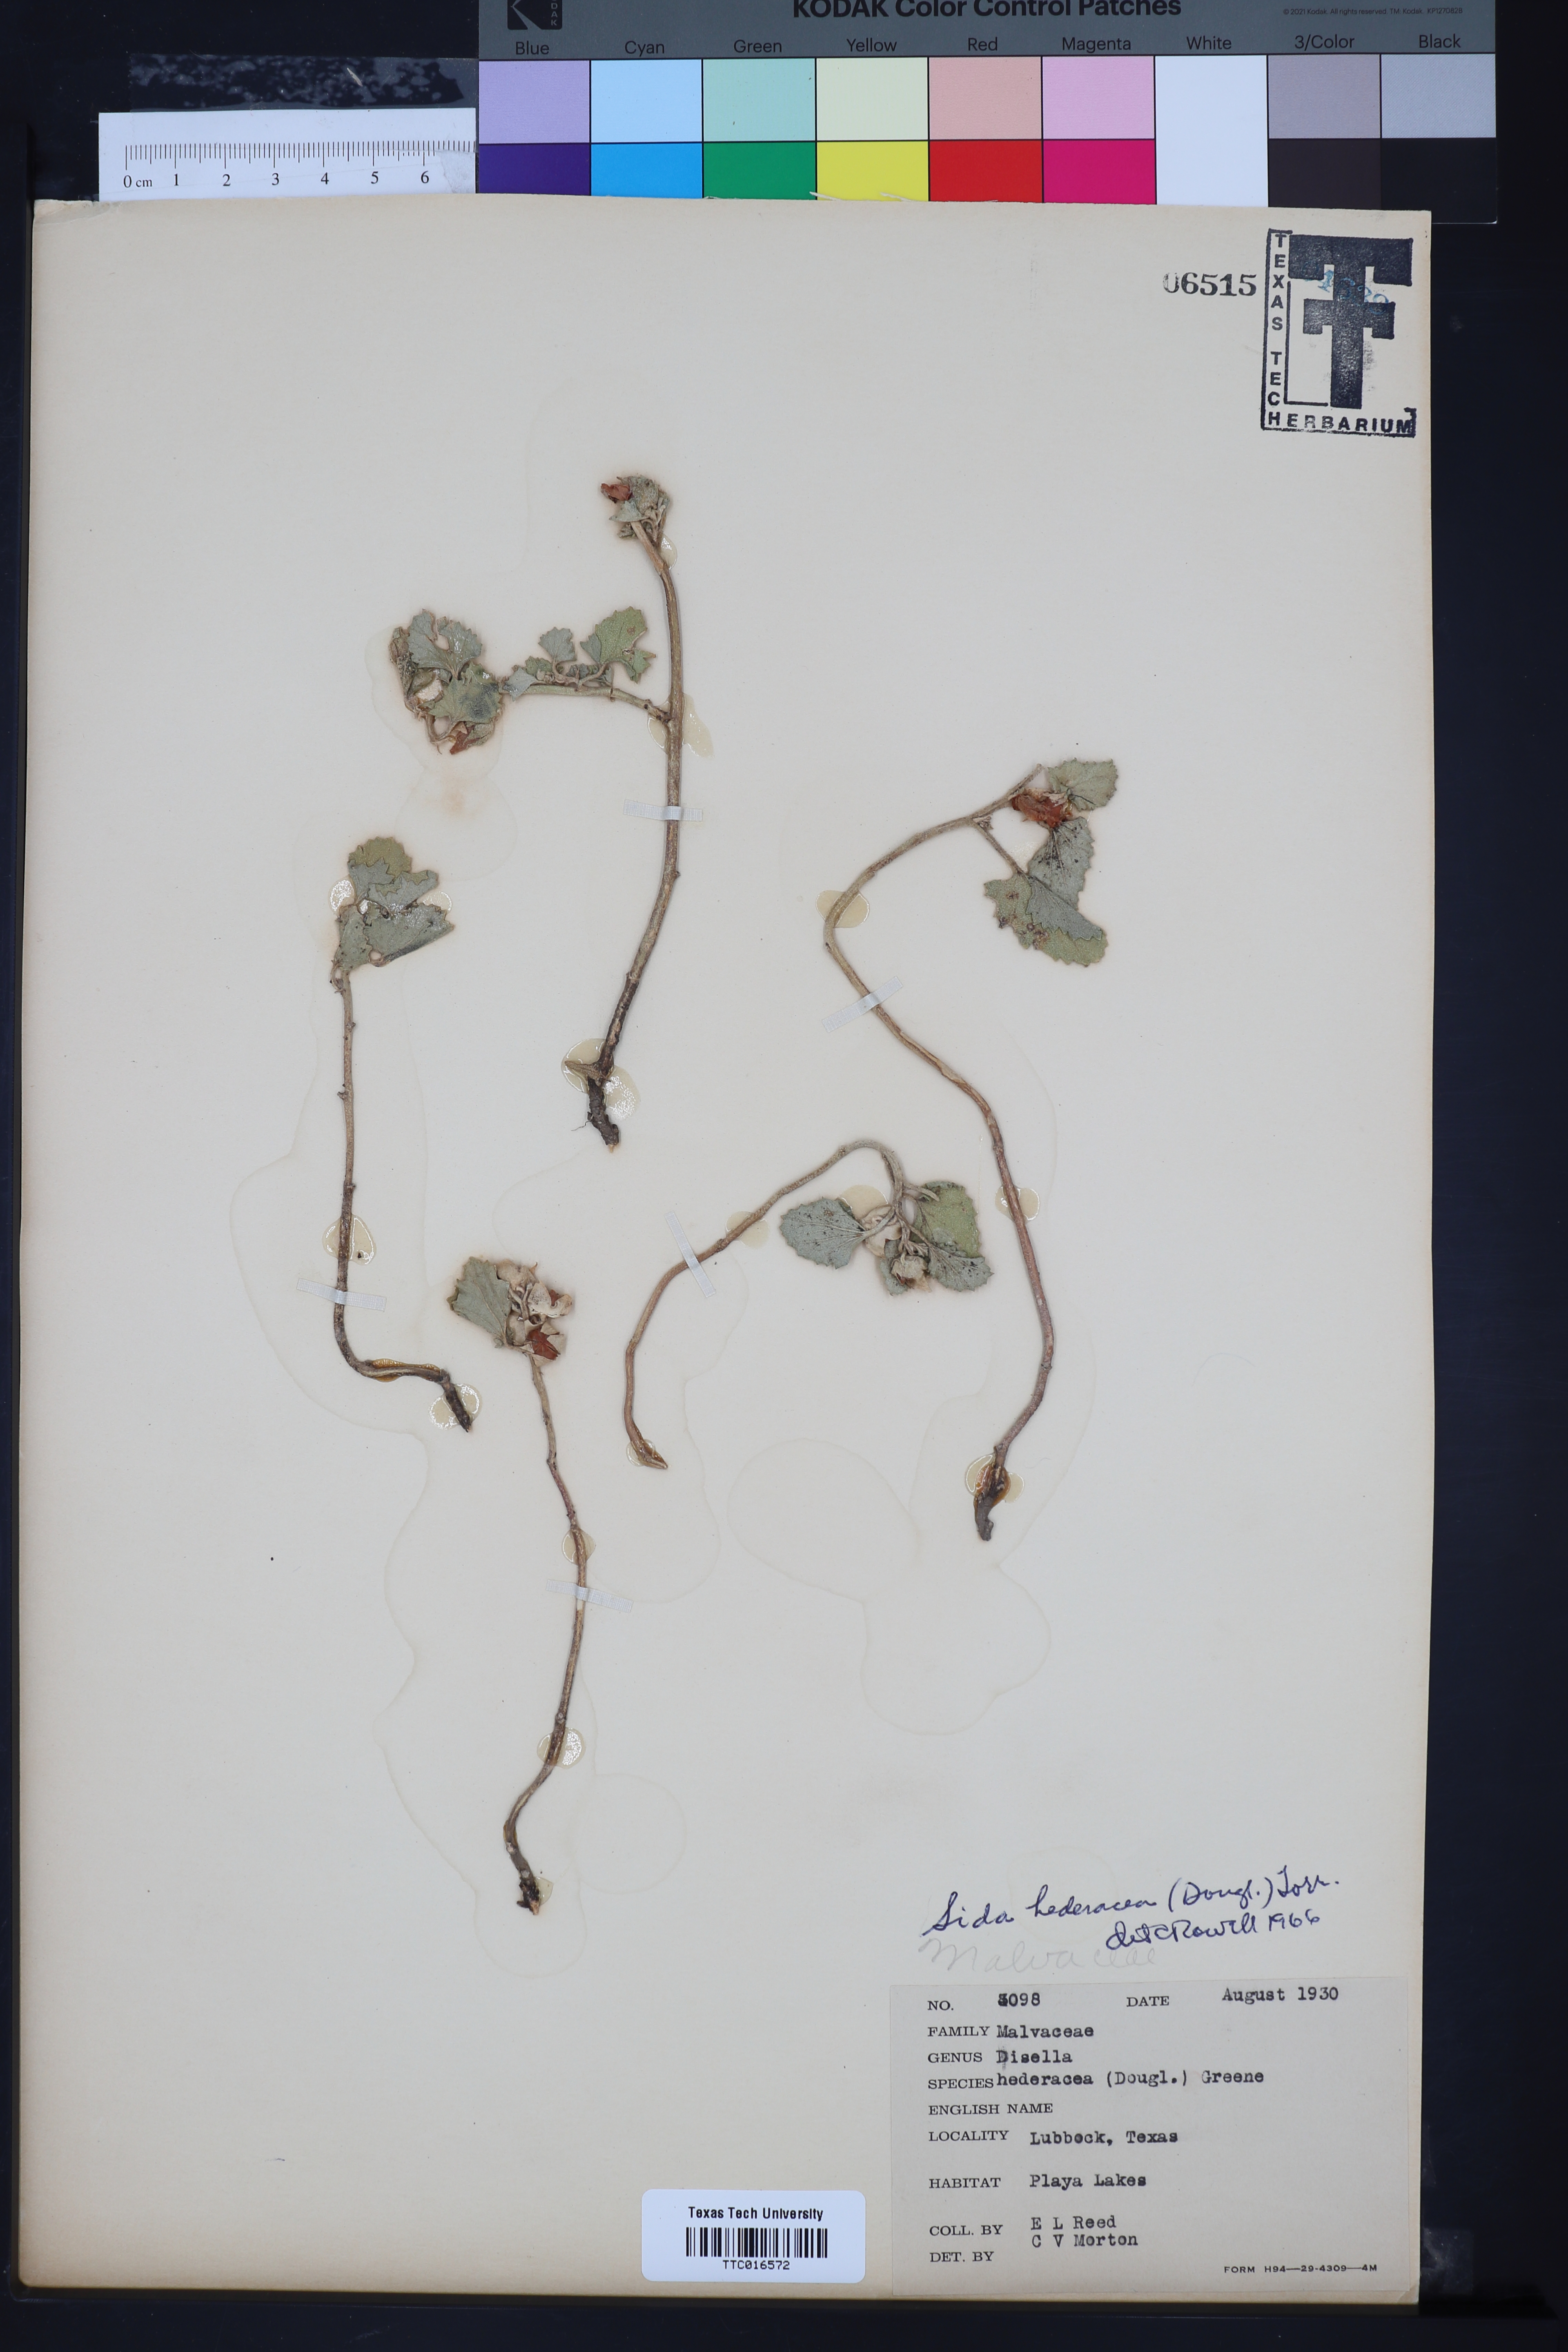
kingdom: Plantae
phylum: Tracheophyta
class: Magnoliopsida
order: Malvales
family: Malvaceae
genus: Malvella
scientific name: Malvella leprosa
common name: Alkali-mallow
